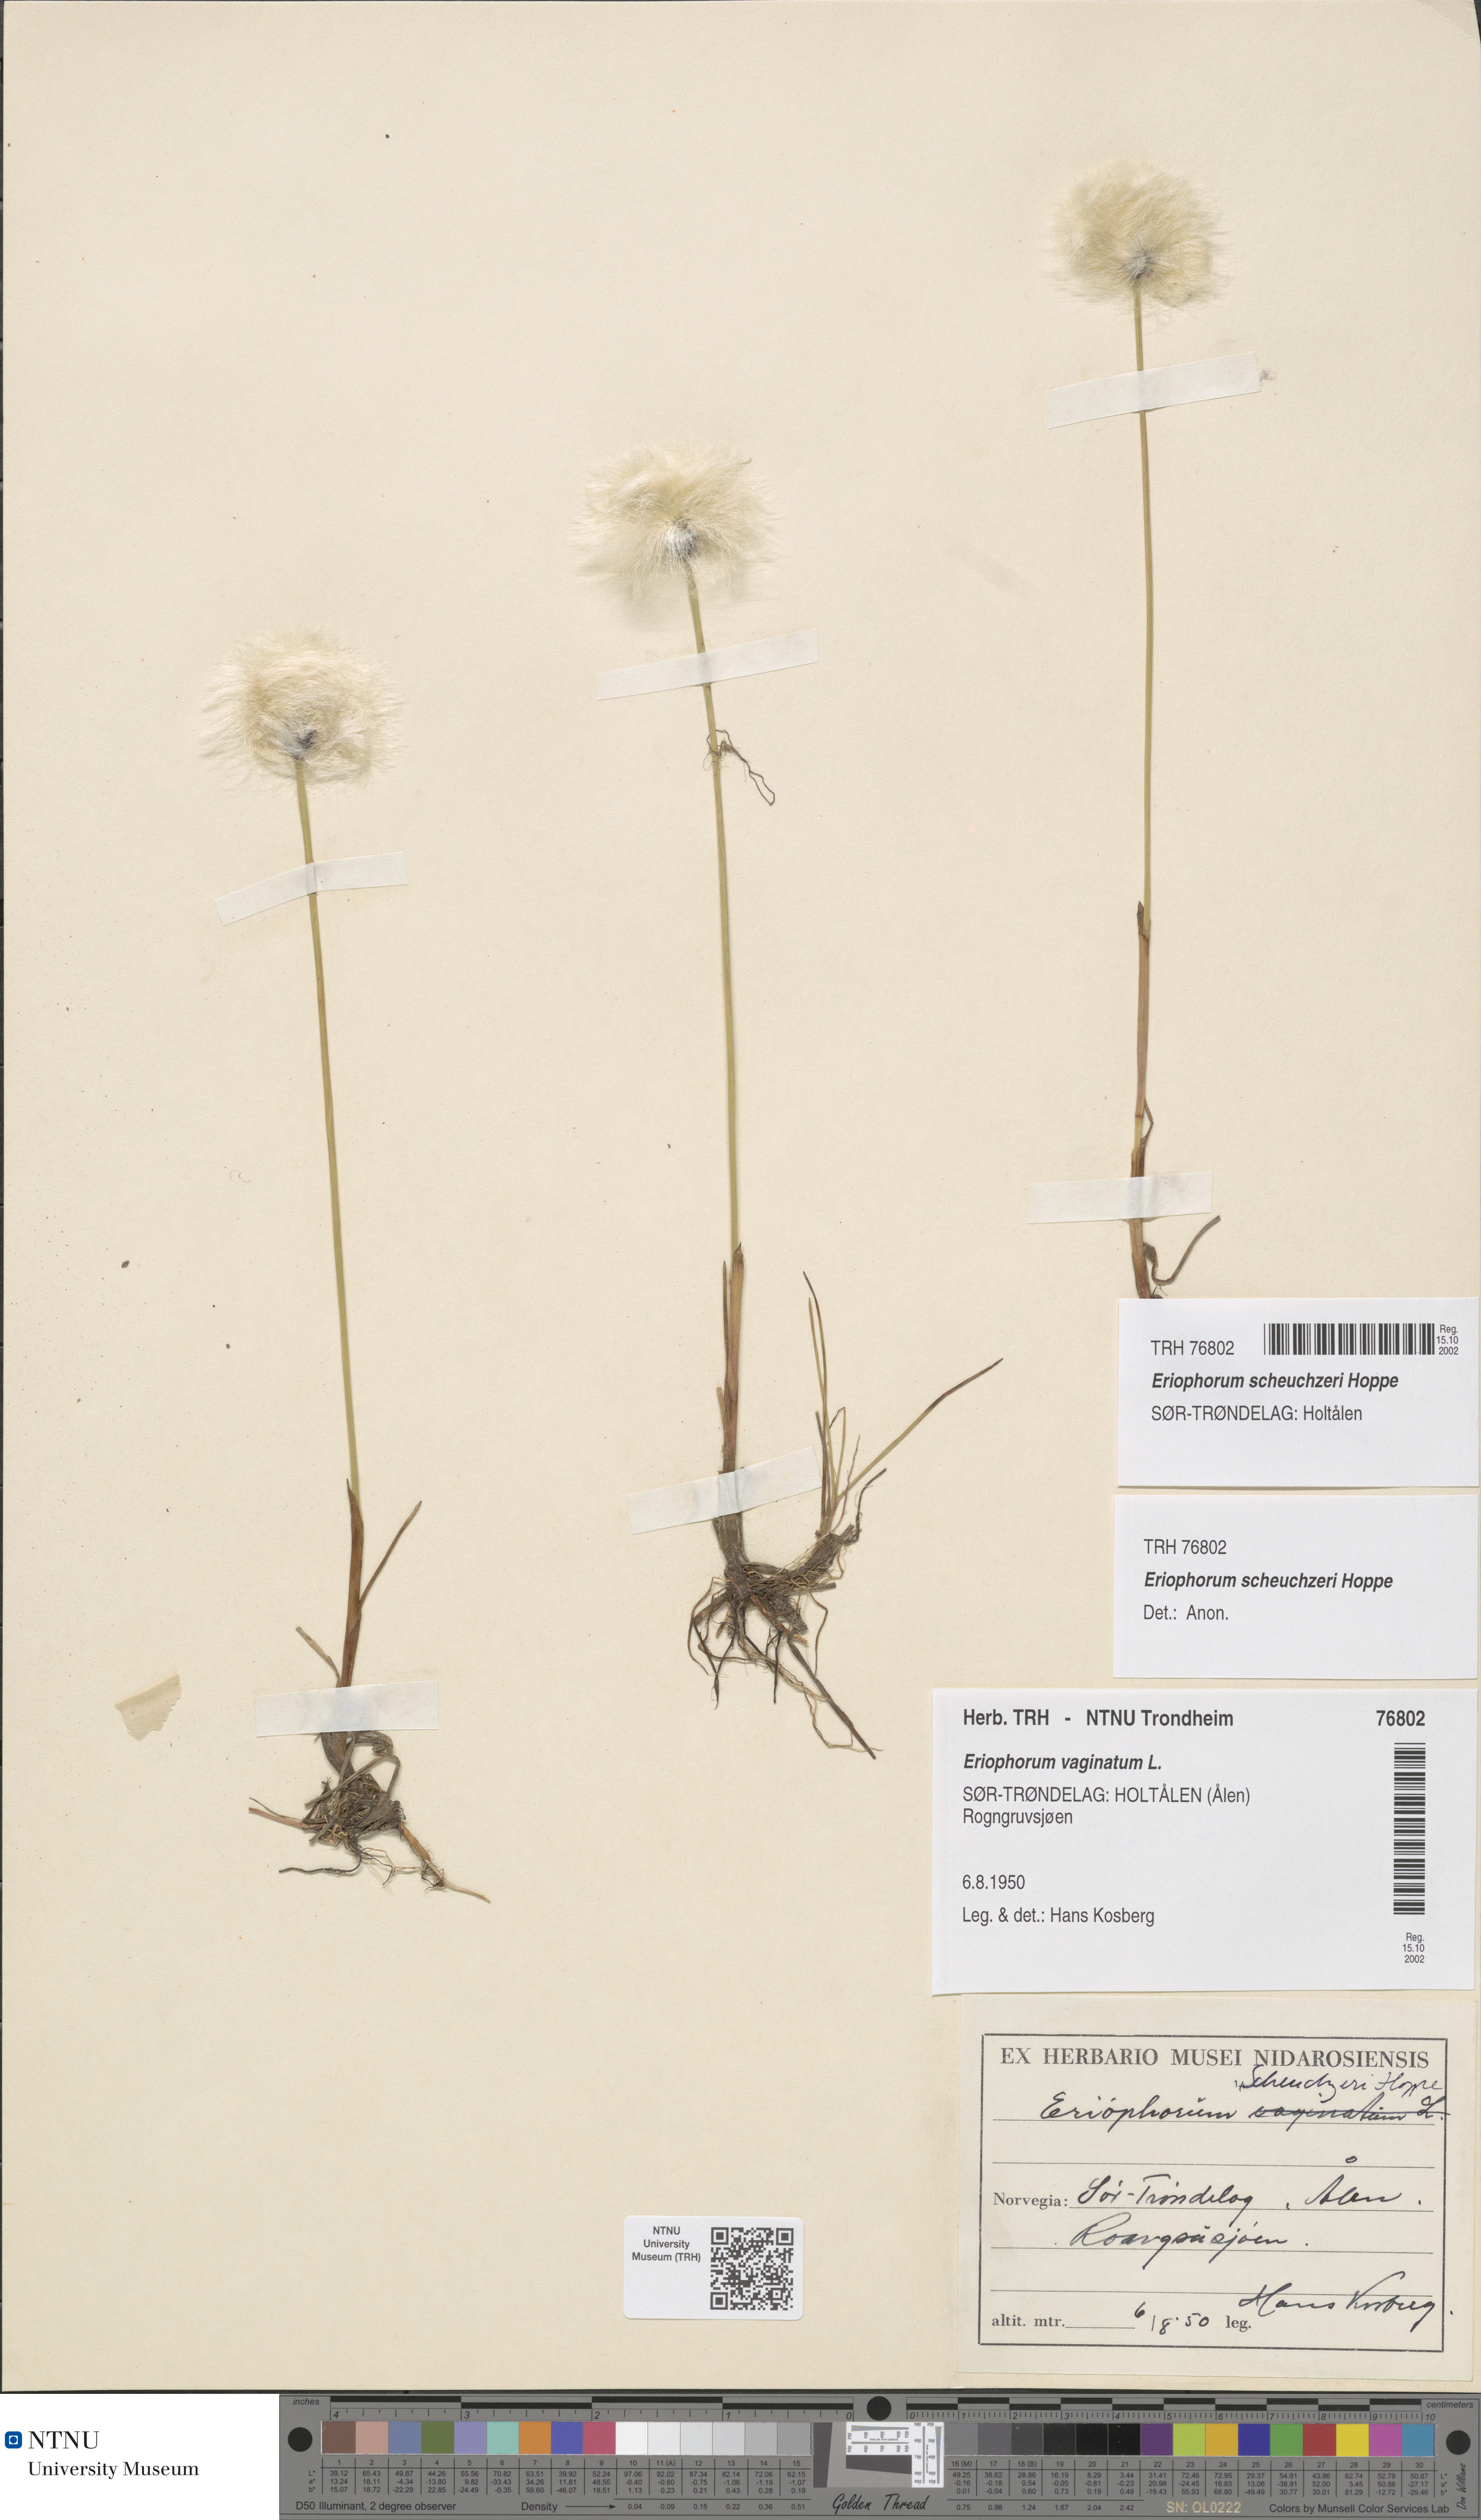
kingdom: Plantae
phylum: Tracheophyta
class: Liliopsida
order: Poales
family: Cyperaceae
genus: Eriophorum
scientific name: Eriophorum scheuchzeri
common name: Scheuchzer's cottongrass
